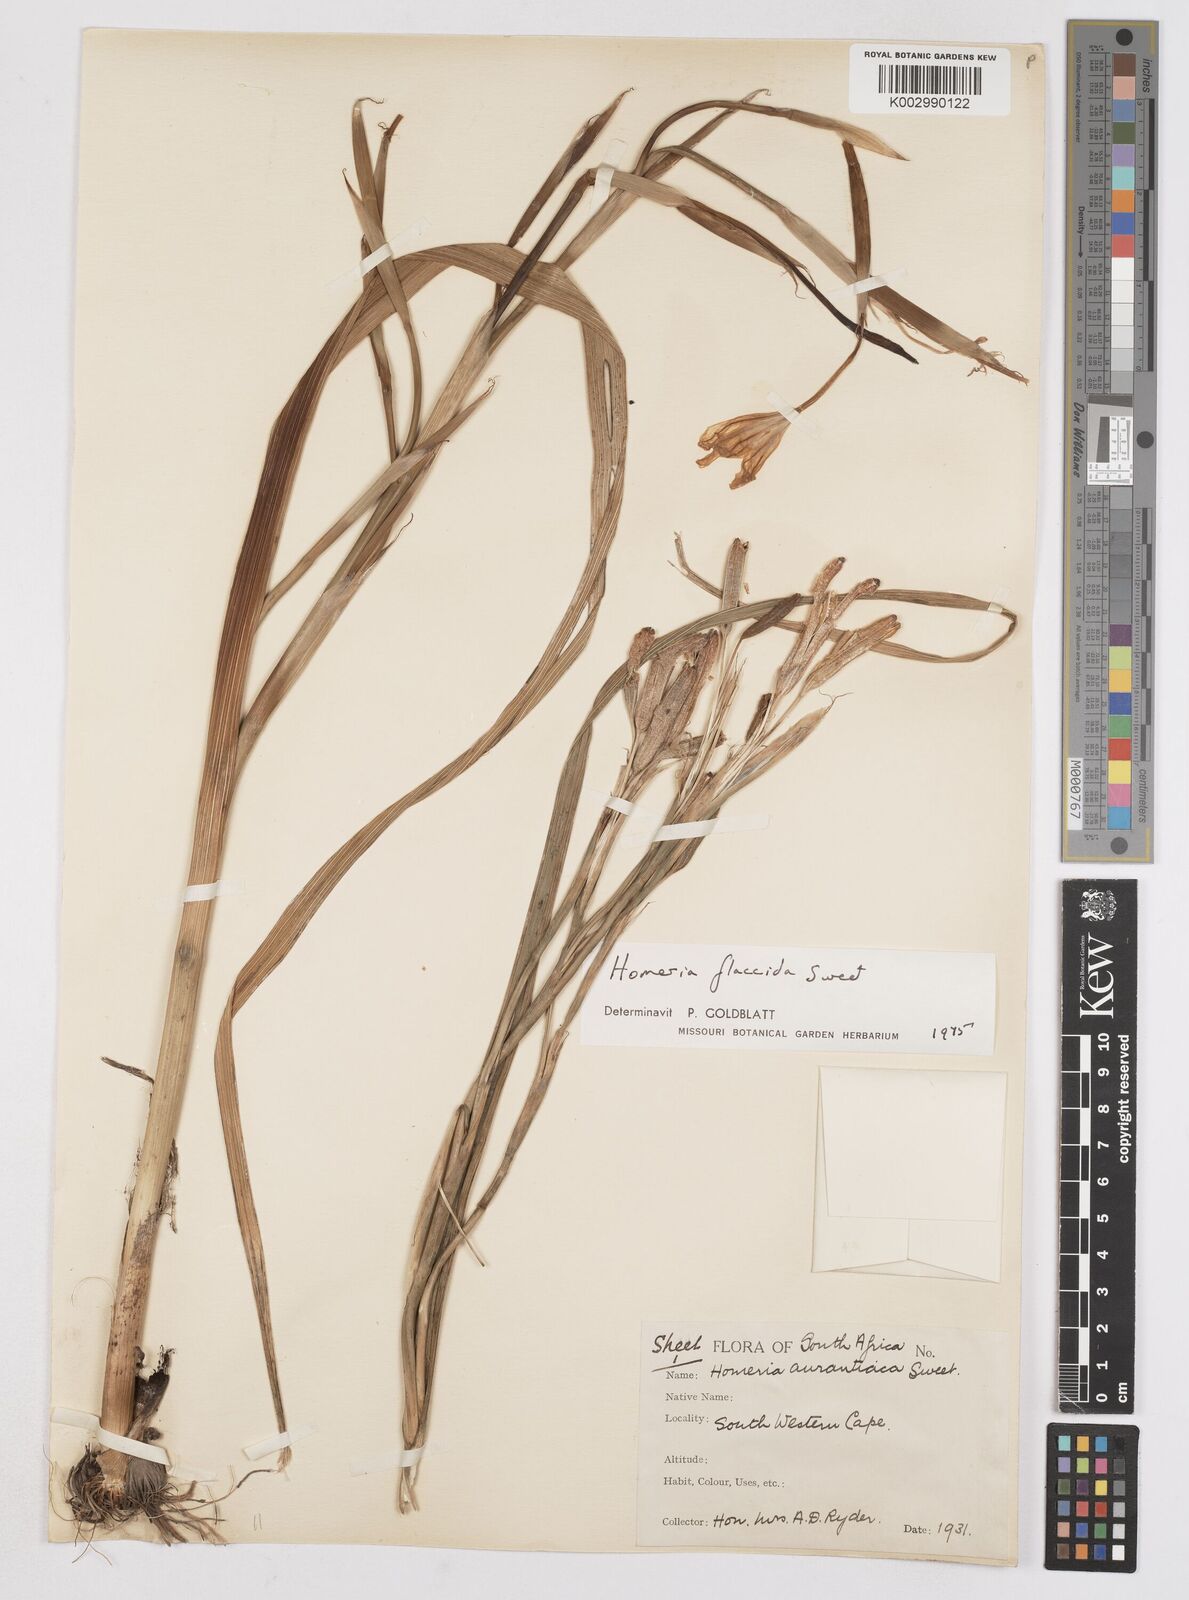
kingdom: Plantae
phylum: Tracheophyta
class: Liliopsida
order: Asparagales
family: Iridaceae
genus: Moraea
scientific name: Moraea flaccida
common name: One-leaf cape-tulip
